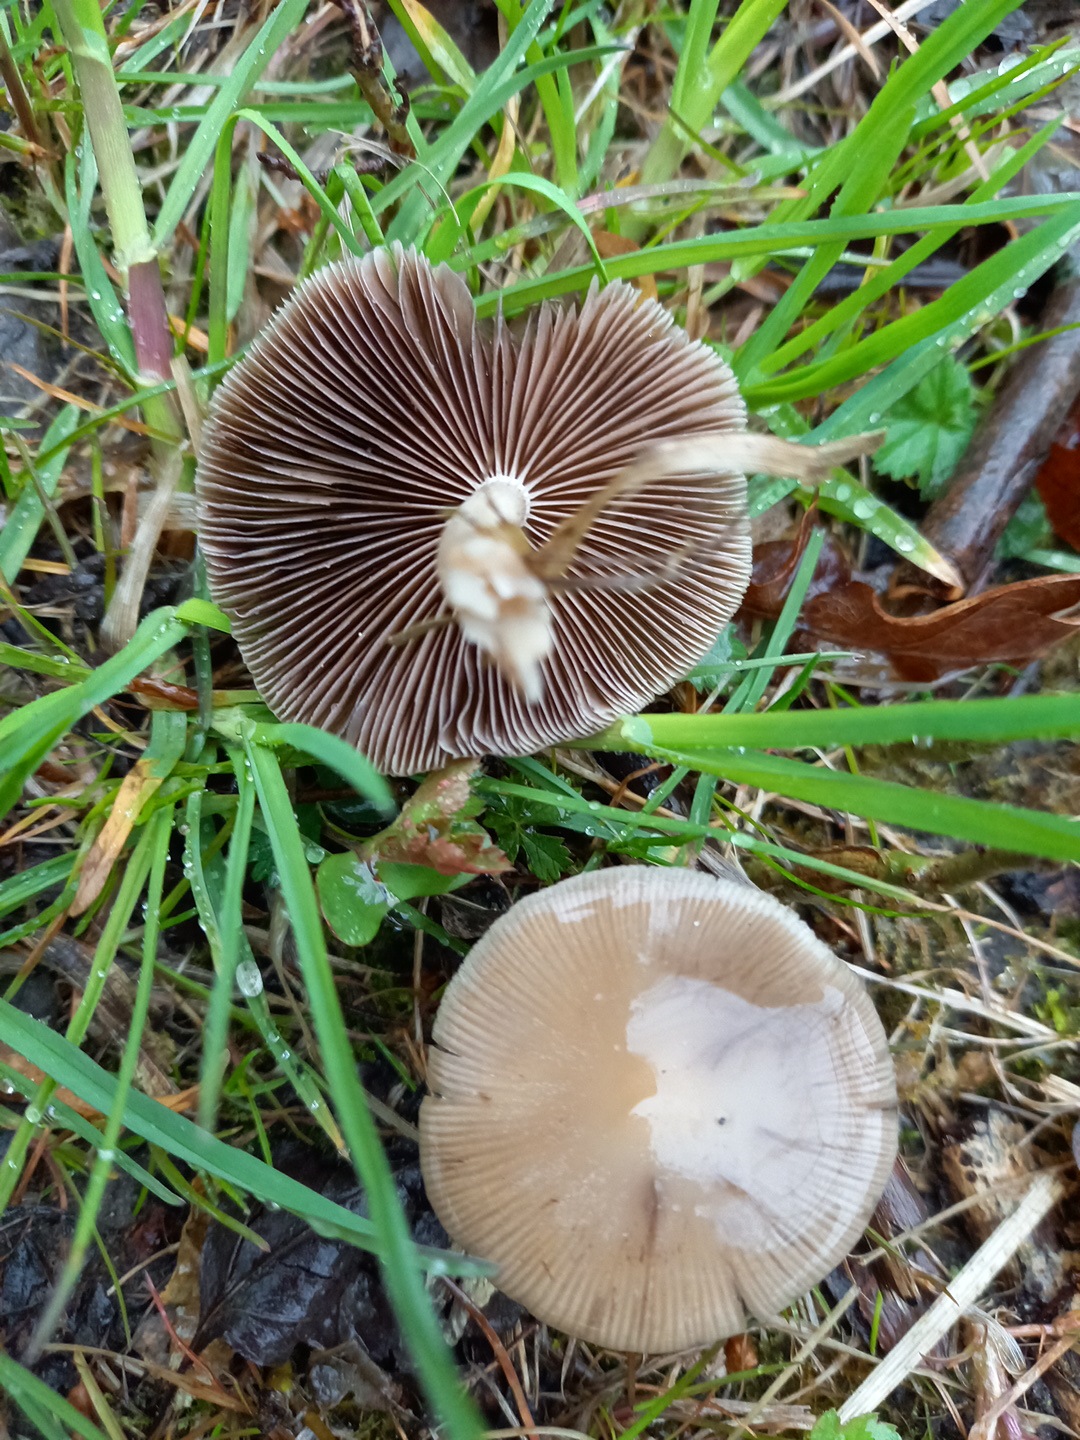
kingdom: Fungi
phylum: Basidiomycota
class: Agaricomycetes
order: Agaricales
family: Psathyrellaceae
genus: Psathyrella
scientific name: Psathyrella
